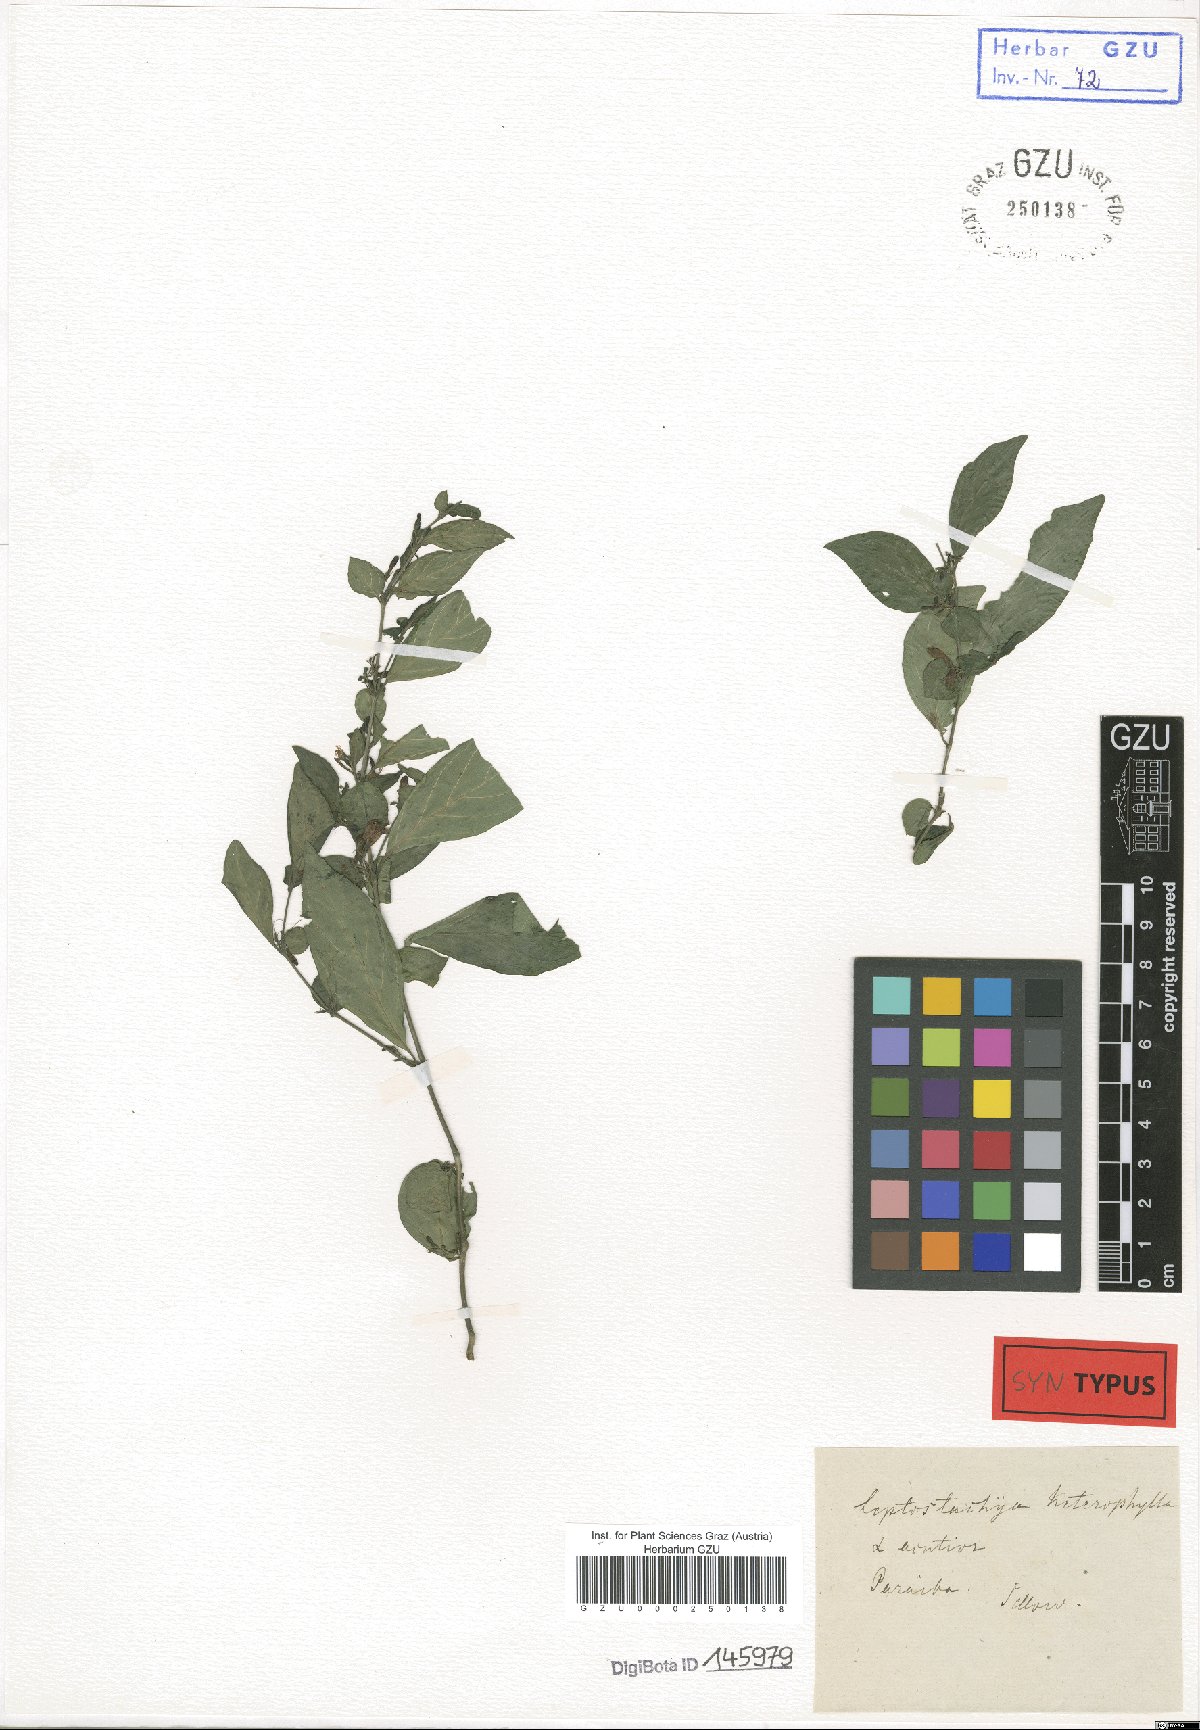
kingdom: Plantae
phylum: Tracheophyta
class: Magnoliopsida
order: Lamiales
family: Acanthaceae
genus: Justicia
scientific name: Justicia parahyba
